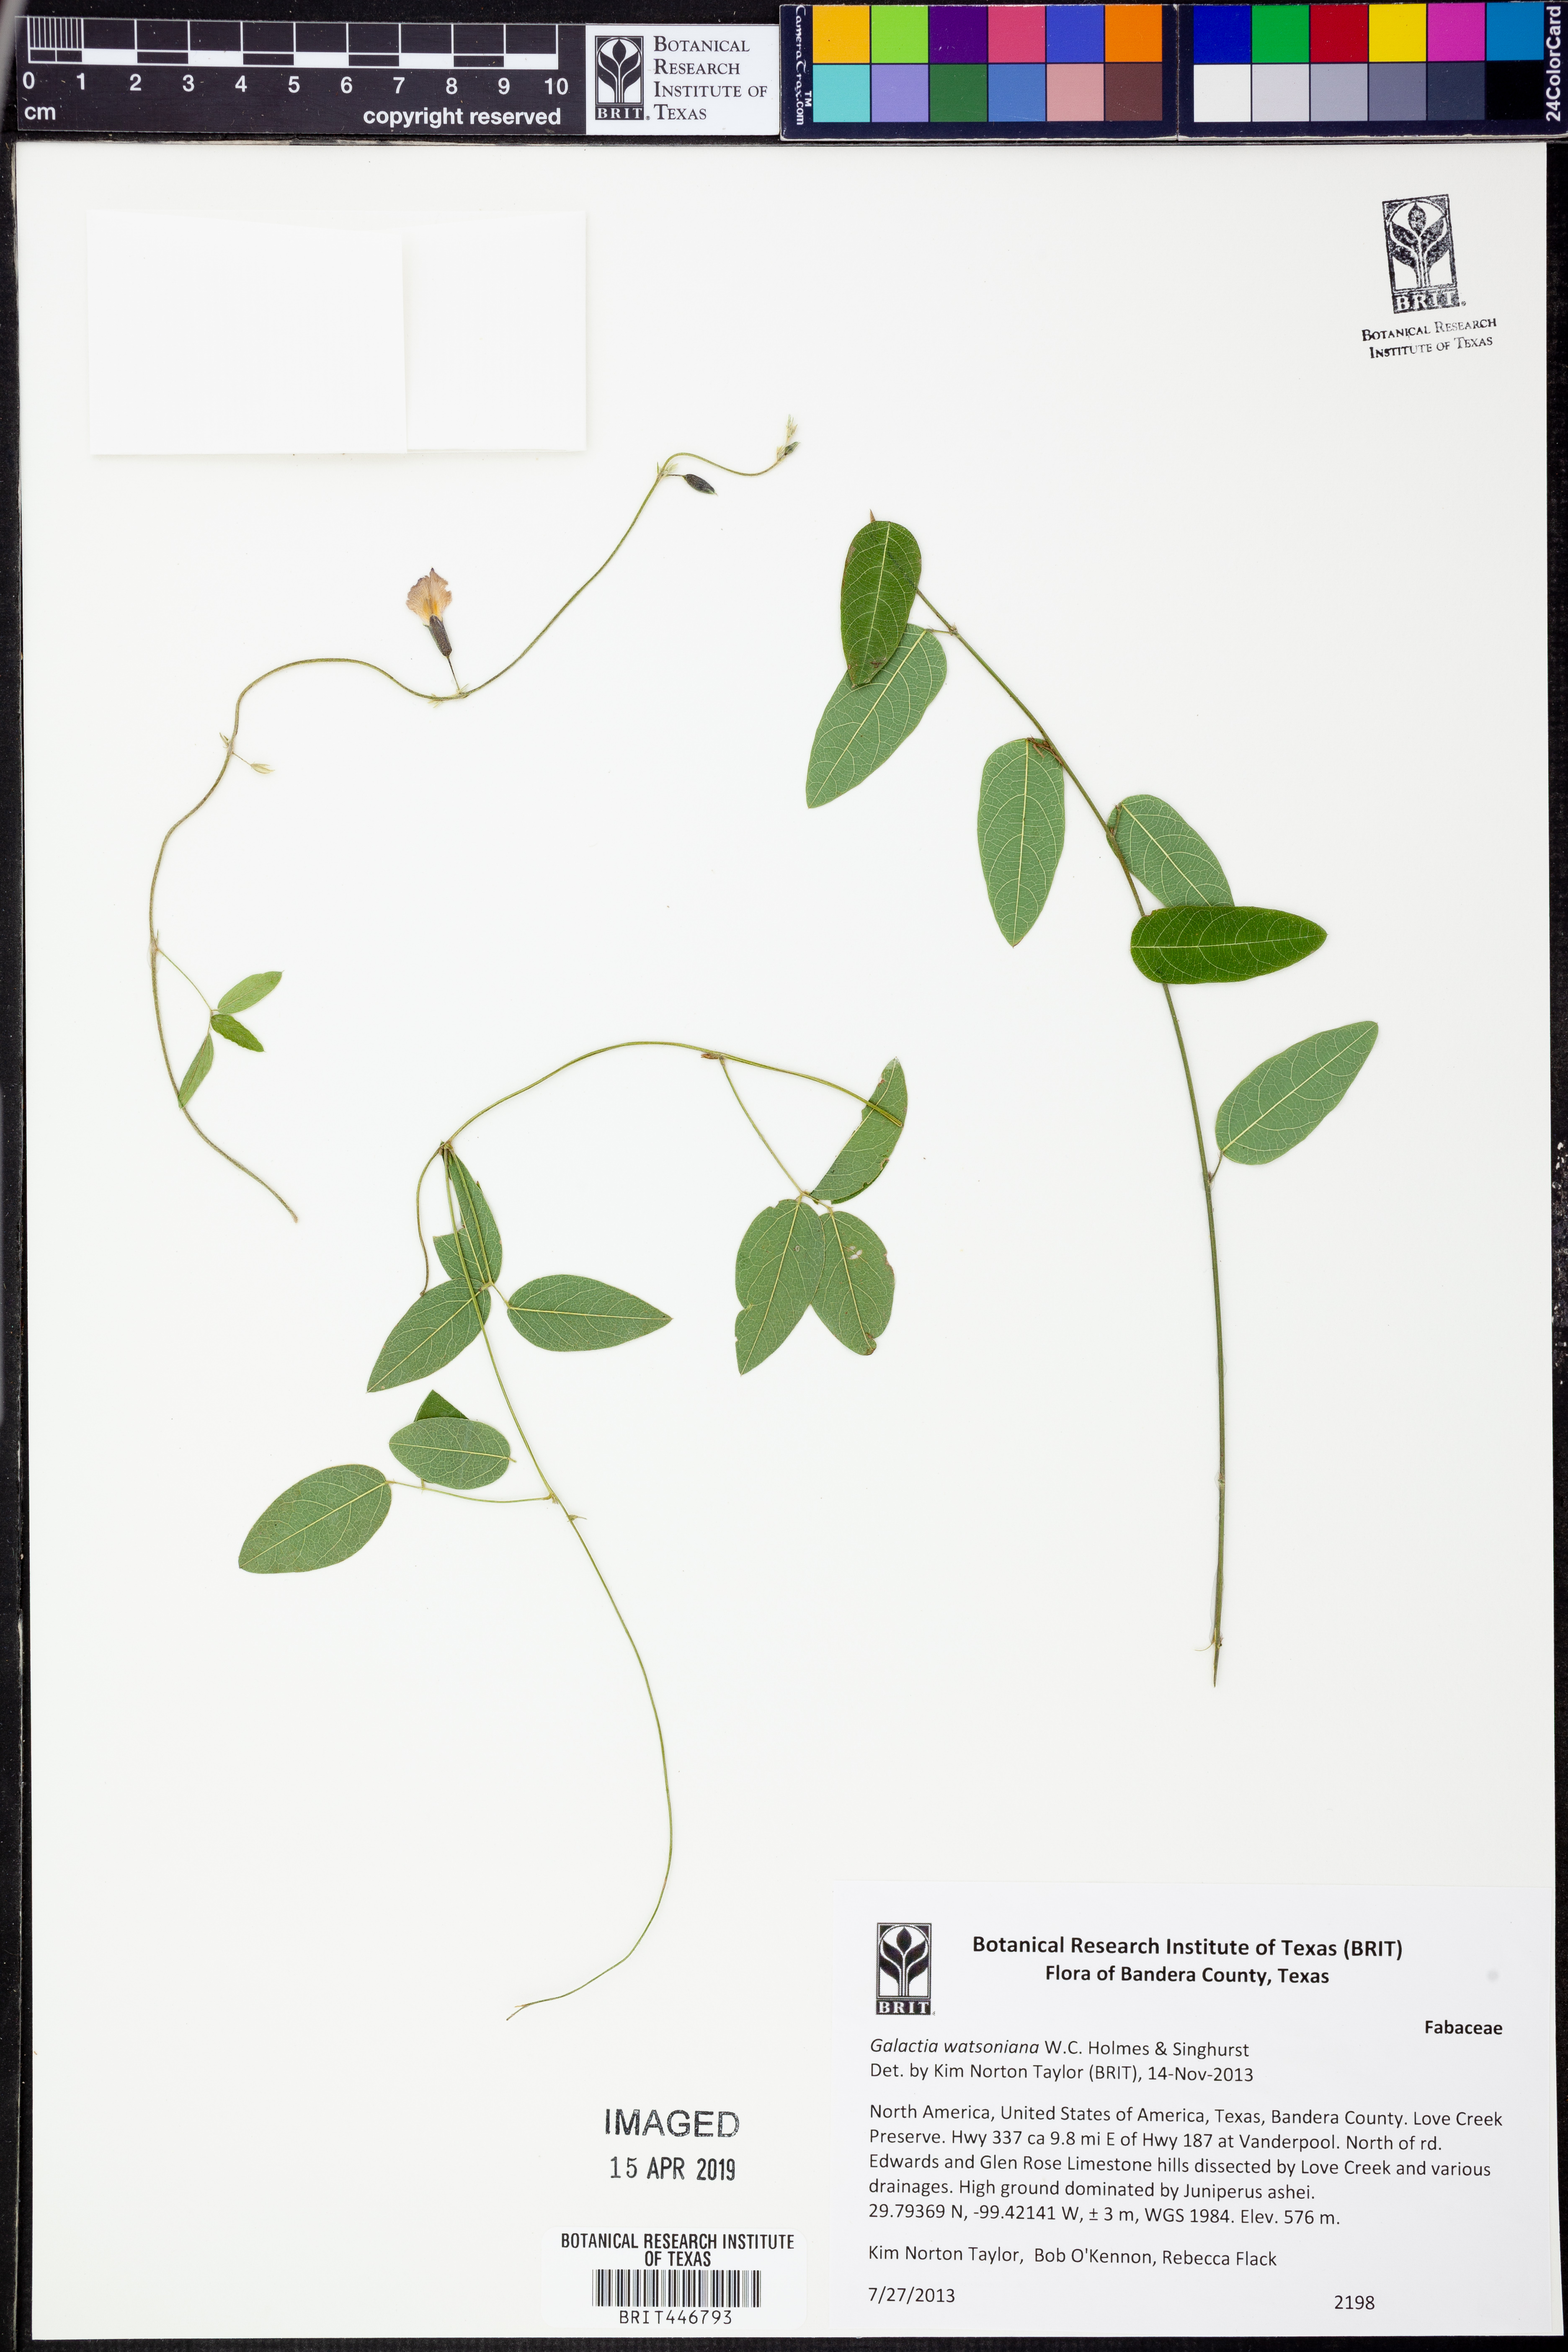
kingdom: Plantae
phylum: Tracheophyta
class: Magnoliopsida
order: Fabales
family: Fabaceae
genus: Galactia
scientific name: Galactia watsoniana
